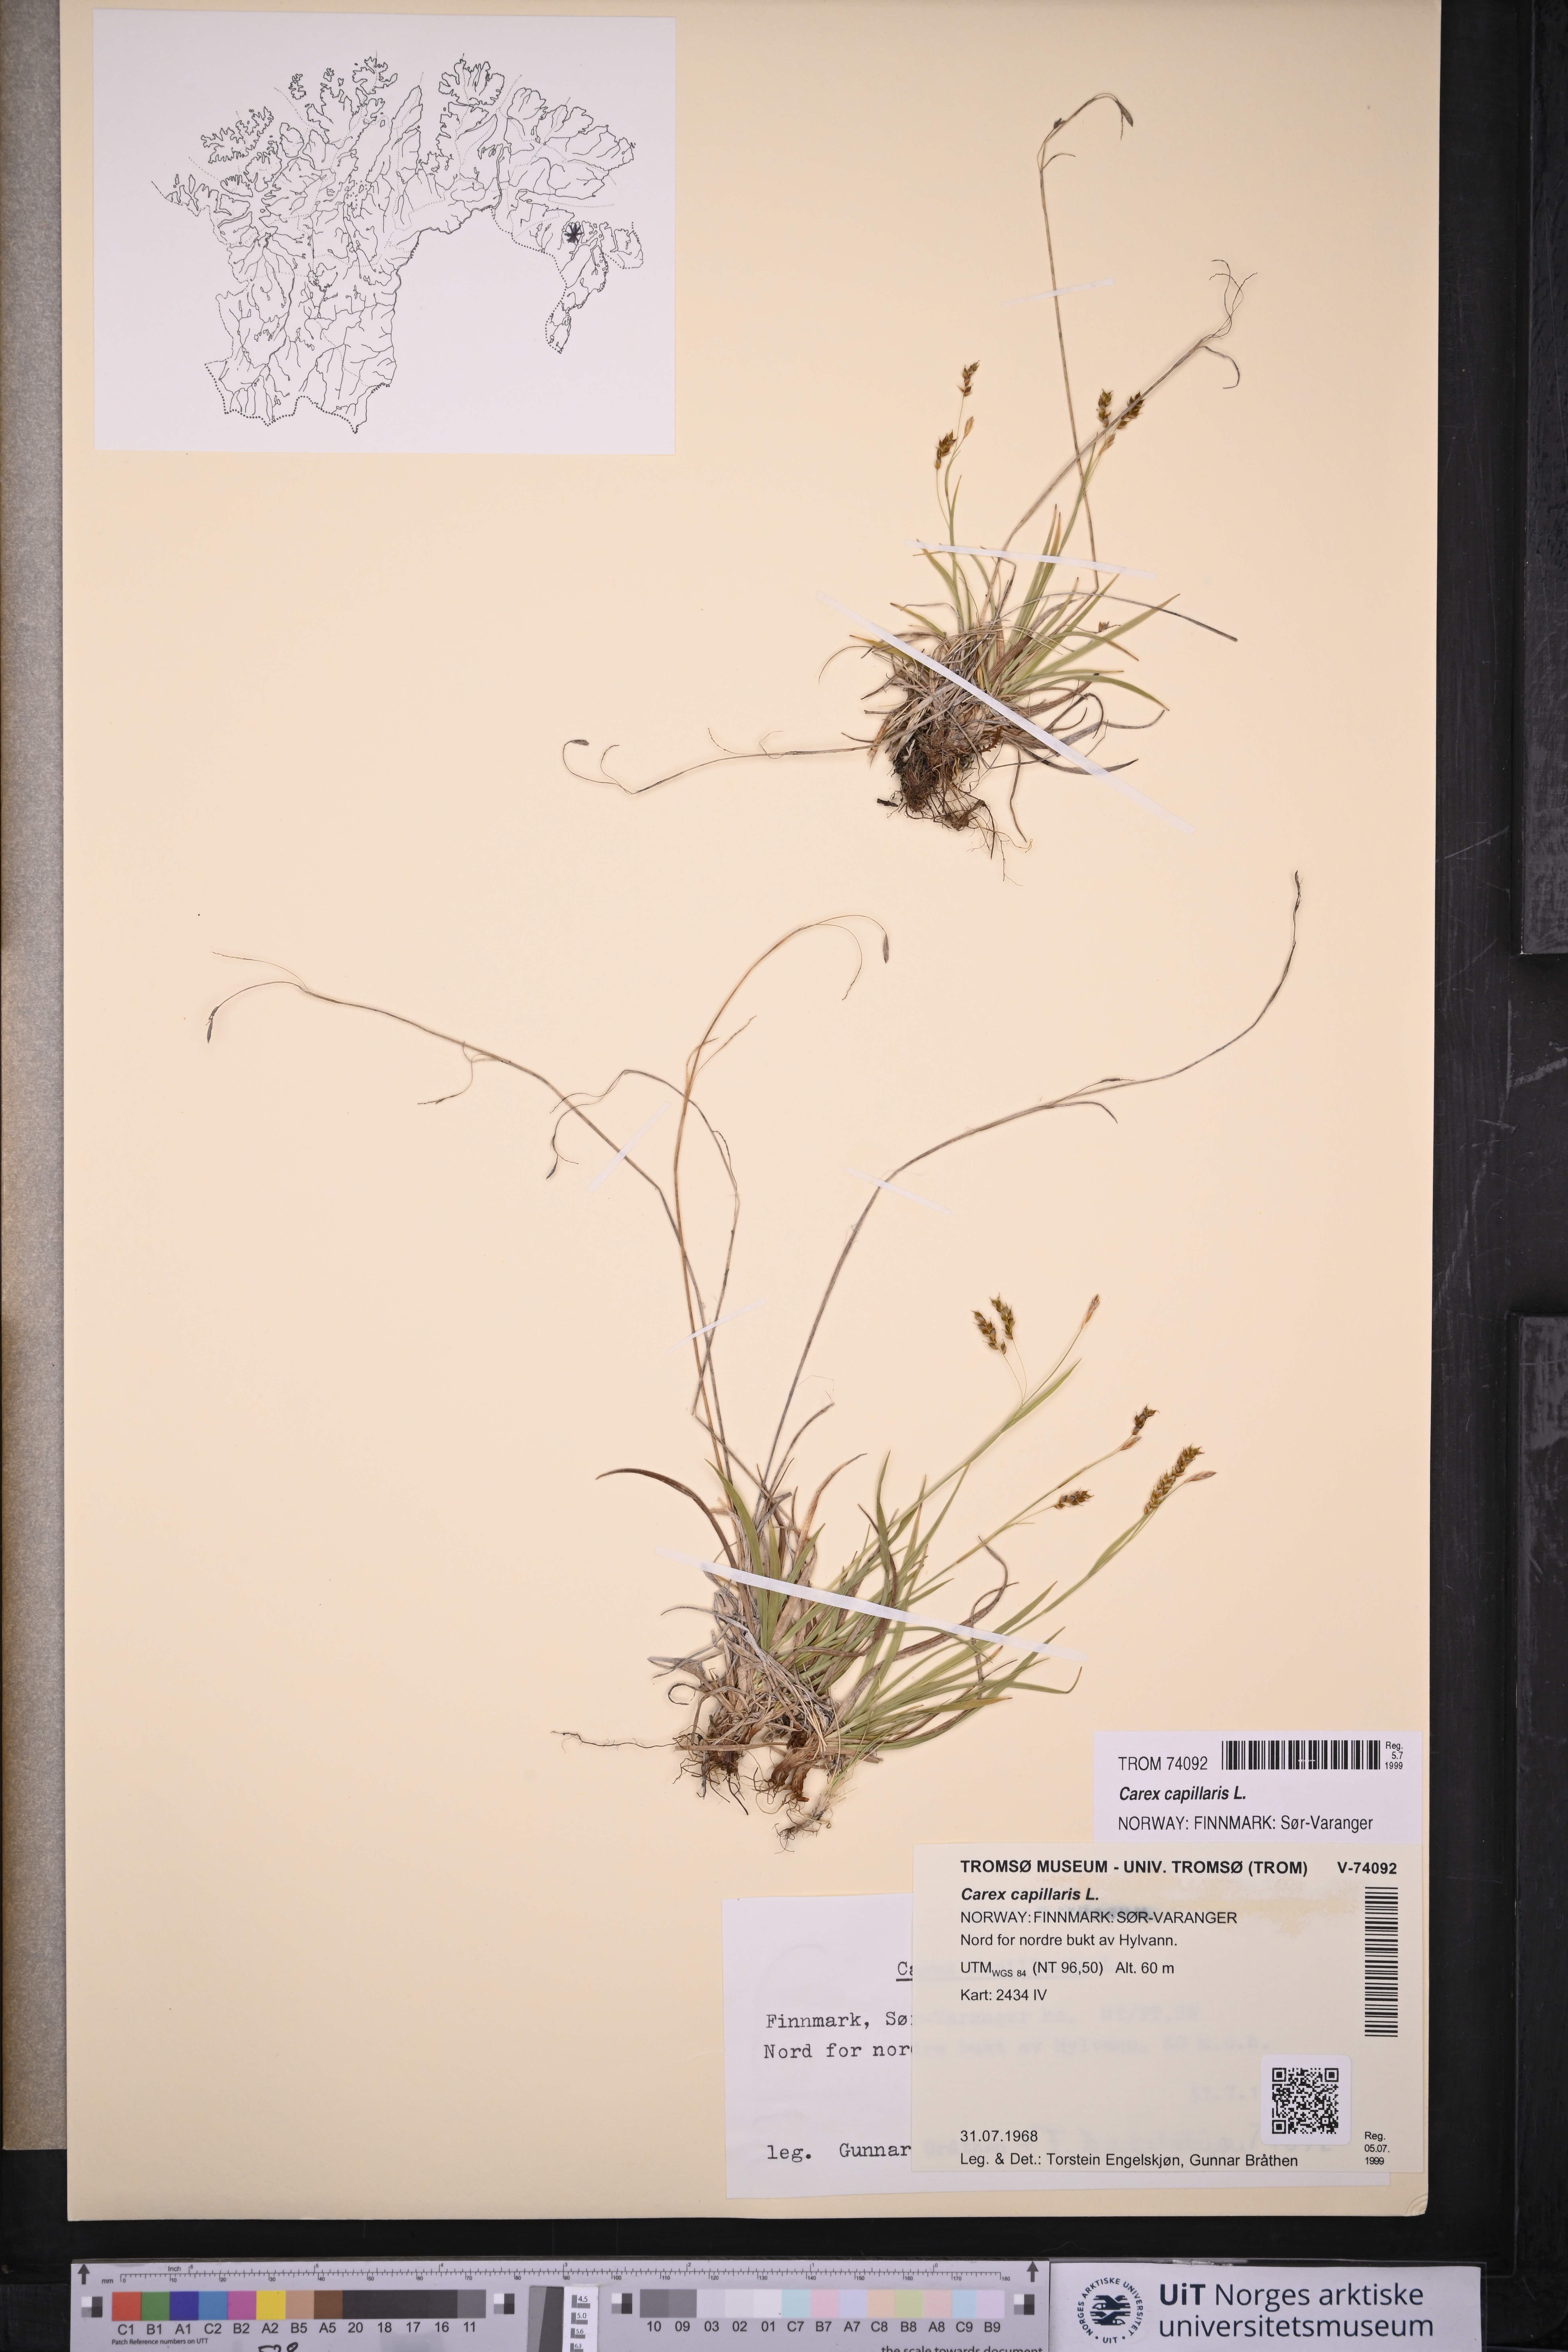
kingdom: Plantae
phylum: Tracheophyta
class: Liliopsida
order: Poales
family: Cyperaceae
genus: Carex
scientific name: Carex capillaris
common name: Hair sedge
